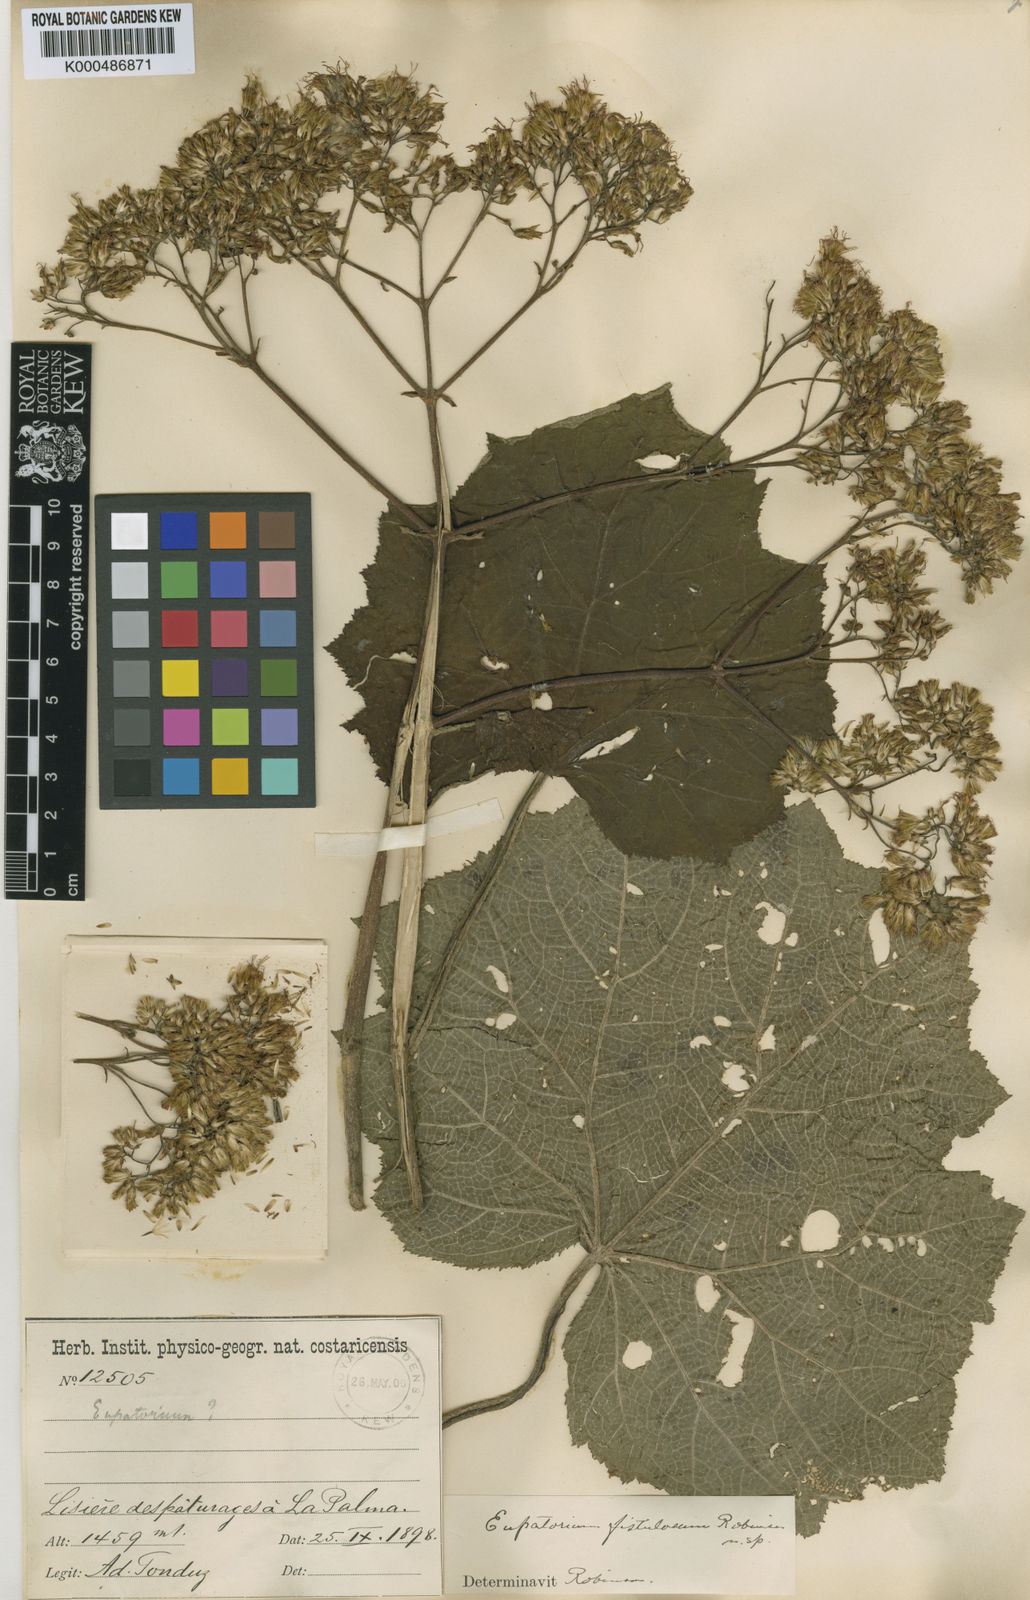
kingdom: Plantae
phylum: Tracheophyta
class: Magnoliopsida
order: Asterales
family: Asteraceae
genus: Neomirandea
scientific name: Neomirandea angularis
